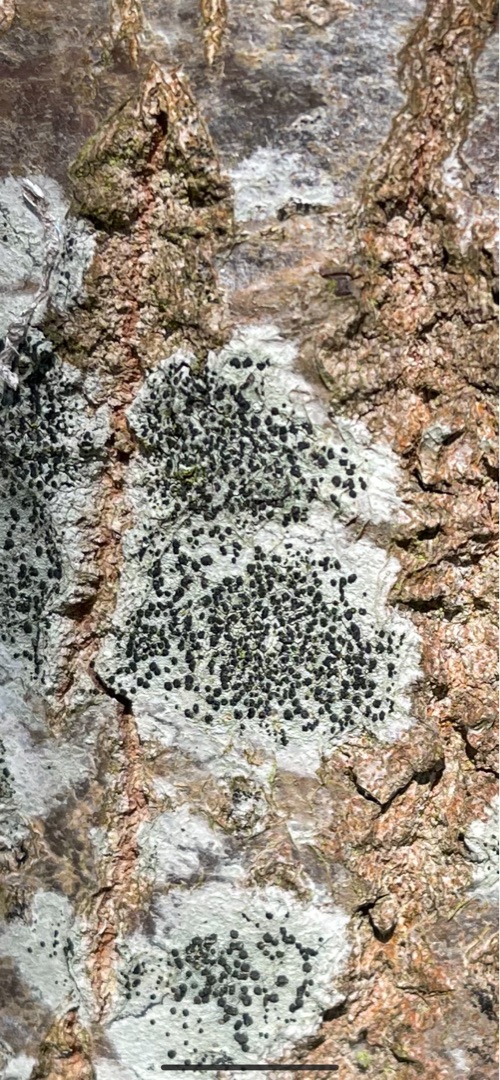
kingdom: Fungi
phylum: Ascomycota
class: Lecanoromycetes
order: Lecanorales
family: Lecanoraceae
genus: Lecidella
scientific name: Lecidella elaeochroma
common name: Grågrøn skivelav
